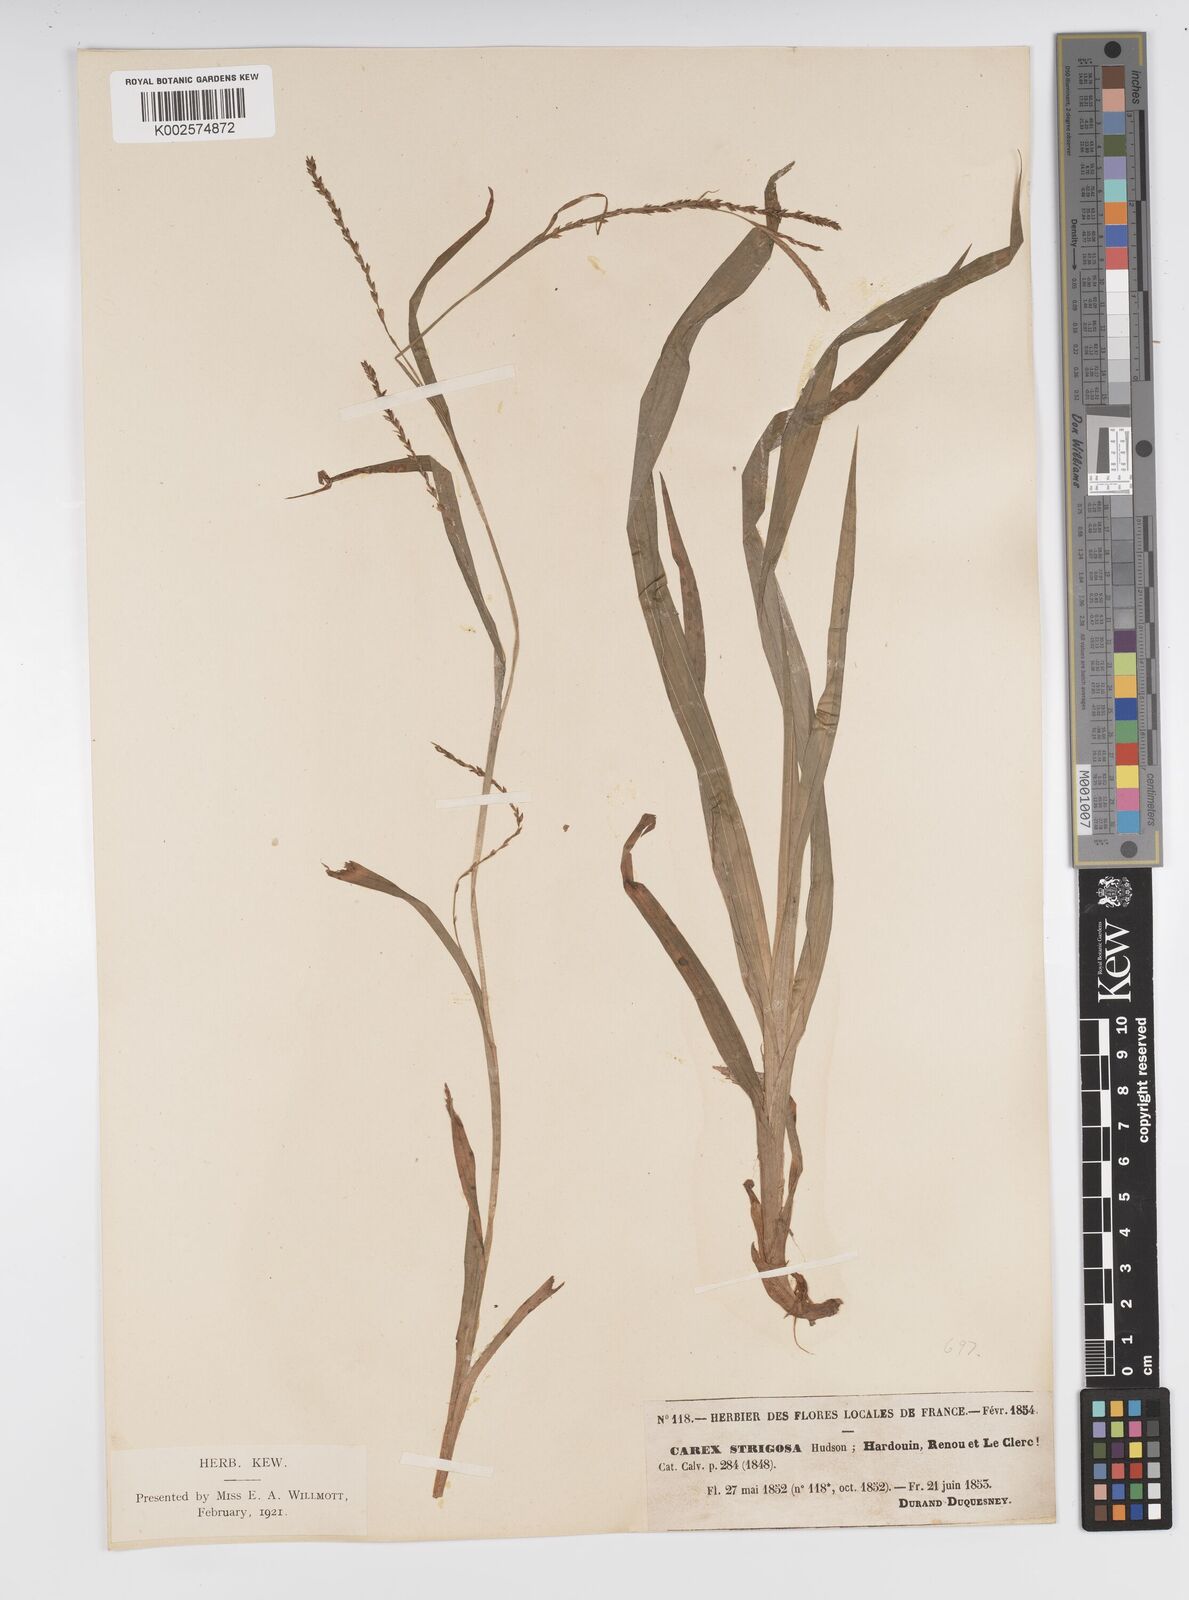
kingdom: Plantae
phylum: Tracheophyta
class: Liliopsida
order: Poales
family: Cyperaceae
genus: Carex
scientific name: Carex strigosa
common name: Thin-spiked wood-sedge
